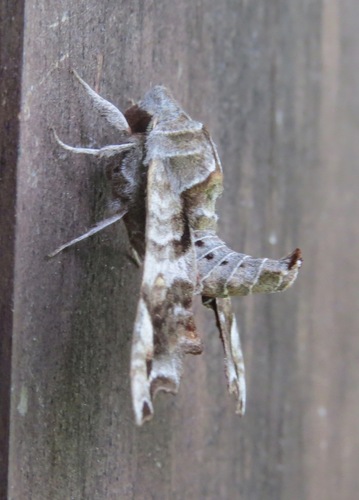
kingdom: Animalia
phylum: Arthropoda
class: Insecta
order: Lepidoptera
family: Sphingidae
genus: Deidamia
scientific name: Deidamia inscriptum
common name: Lettered sphinx
